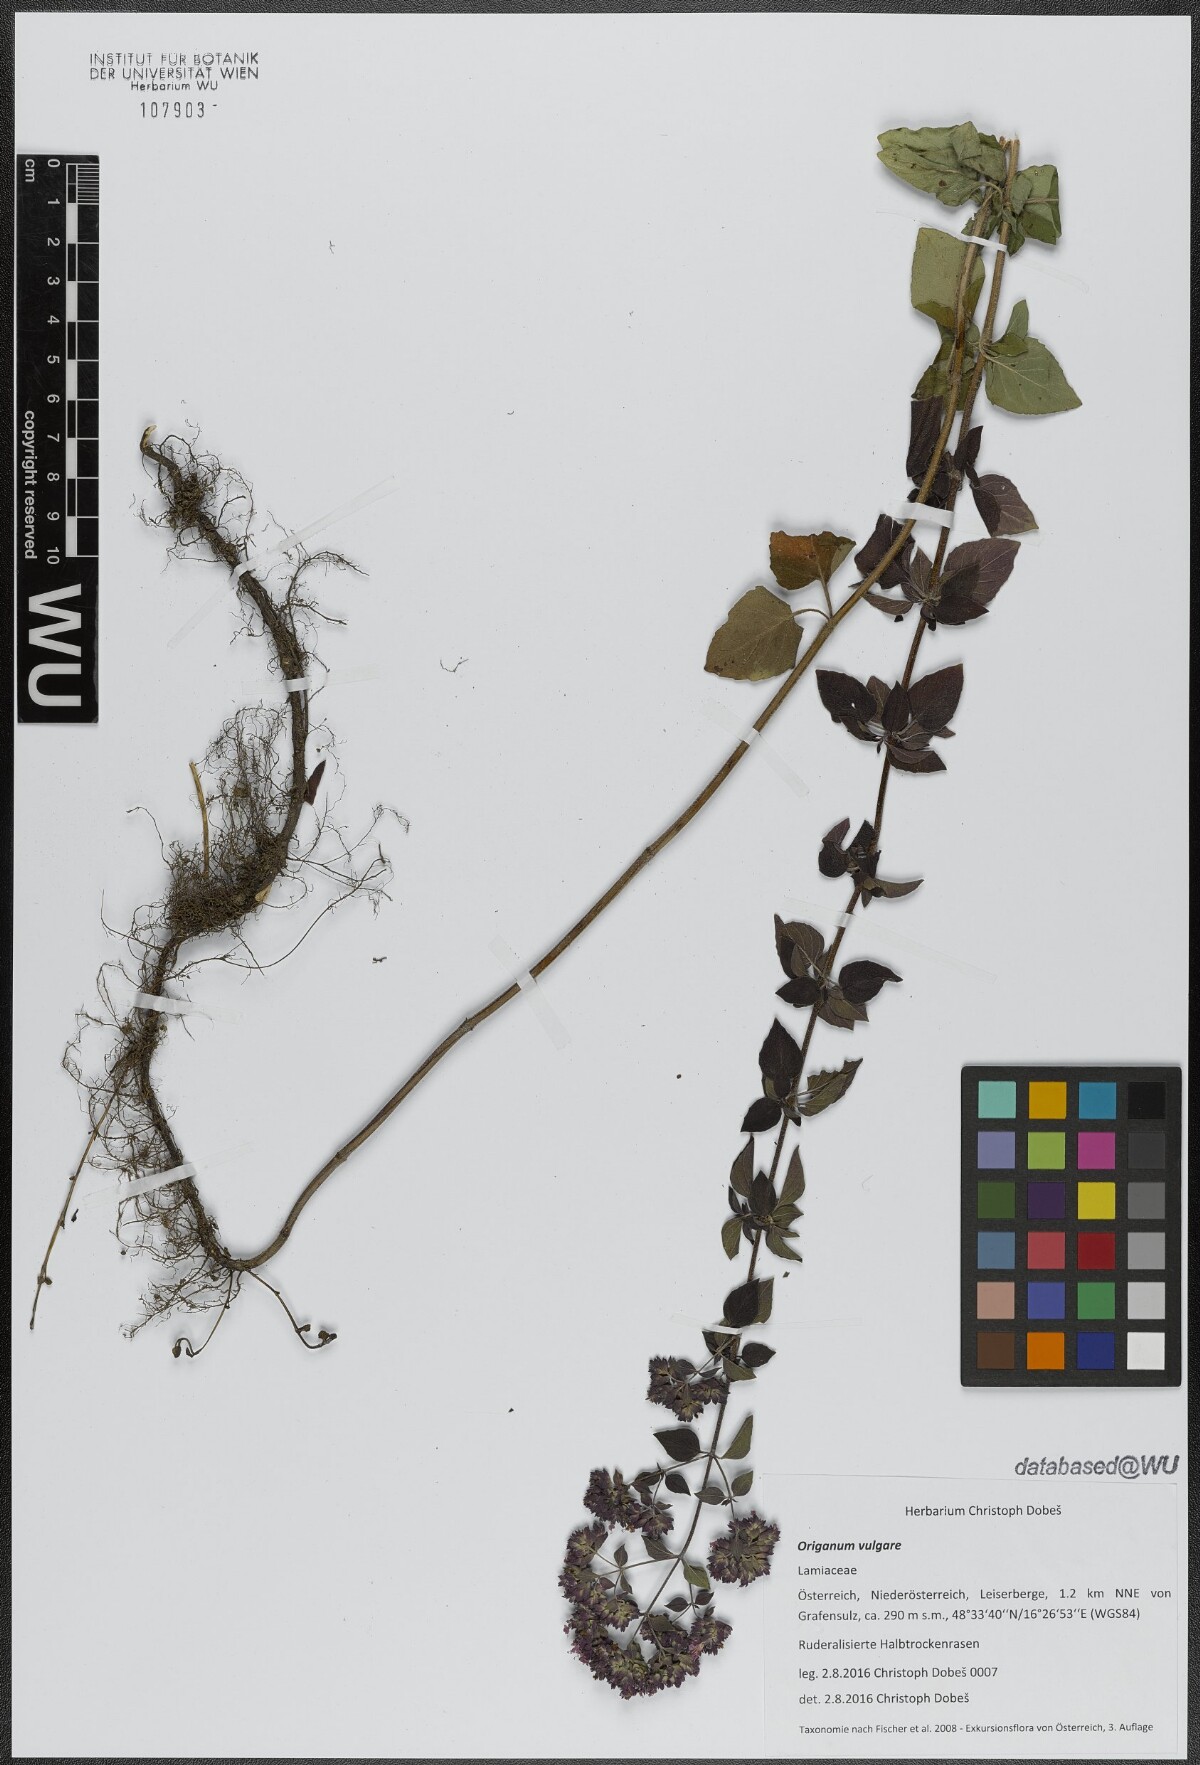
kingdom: Plantae
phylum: Tracheophyta
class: Magnoliopsida
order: Lamiales
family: Lamiaceae
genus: Origanum
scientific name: Origanum vulgare
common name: Wild marjoram
